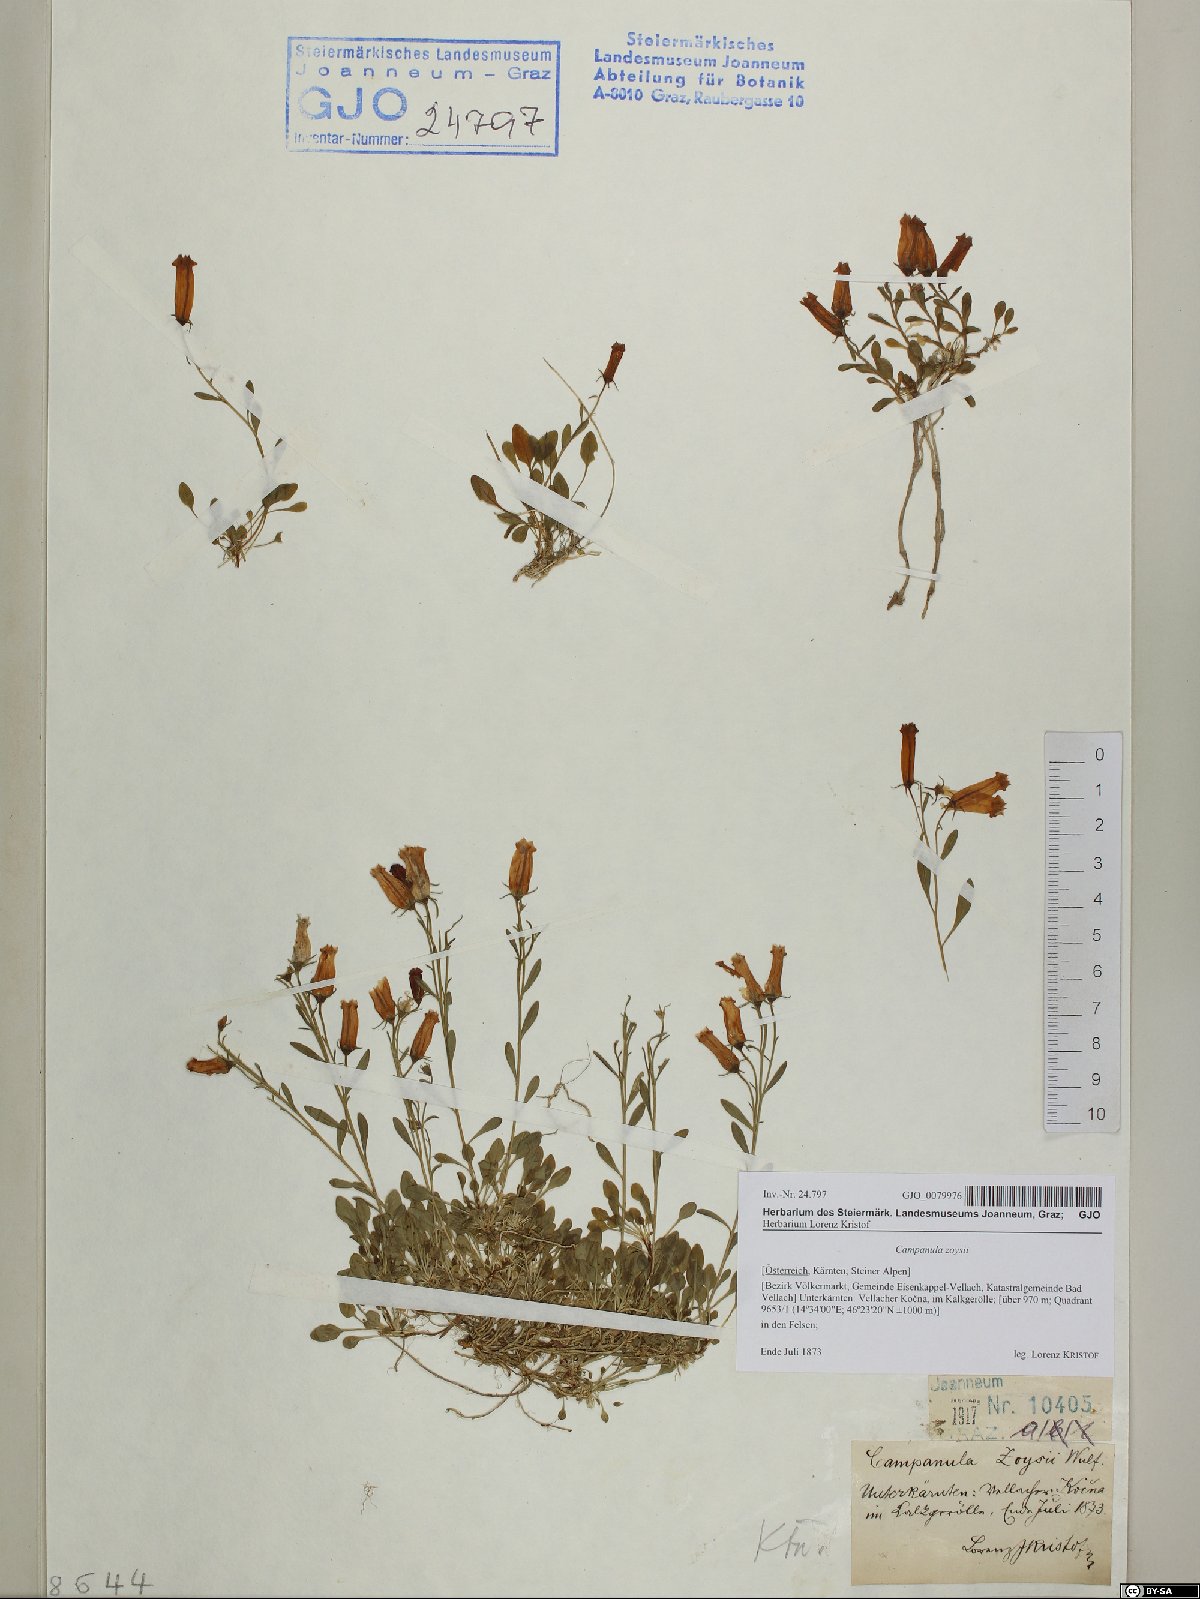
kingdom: Plantae
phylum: Tracheophyta
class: Magnoliopsida
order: Asterales
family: Campanulaceae
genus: Favratia
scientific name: Favratia zoysii
